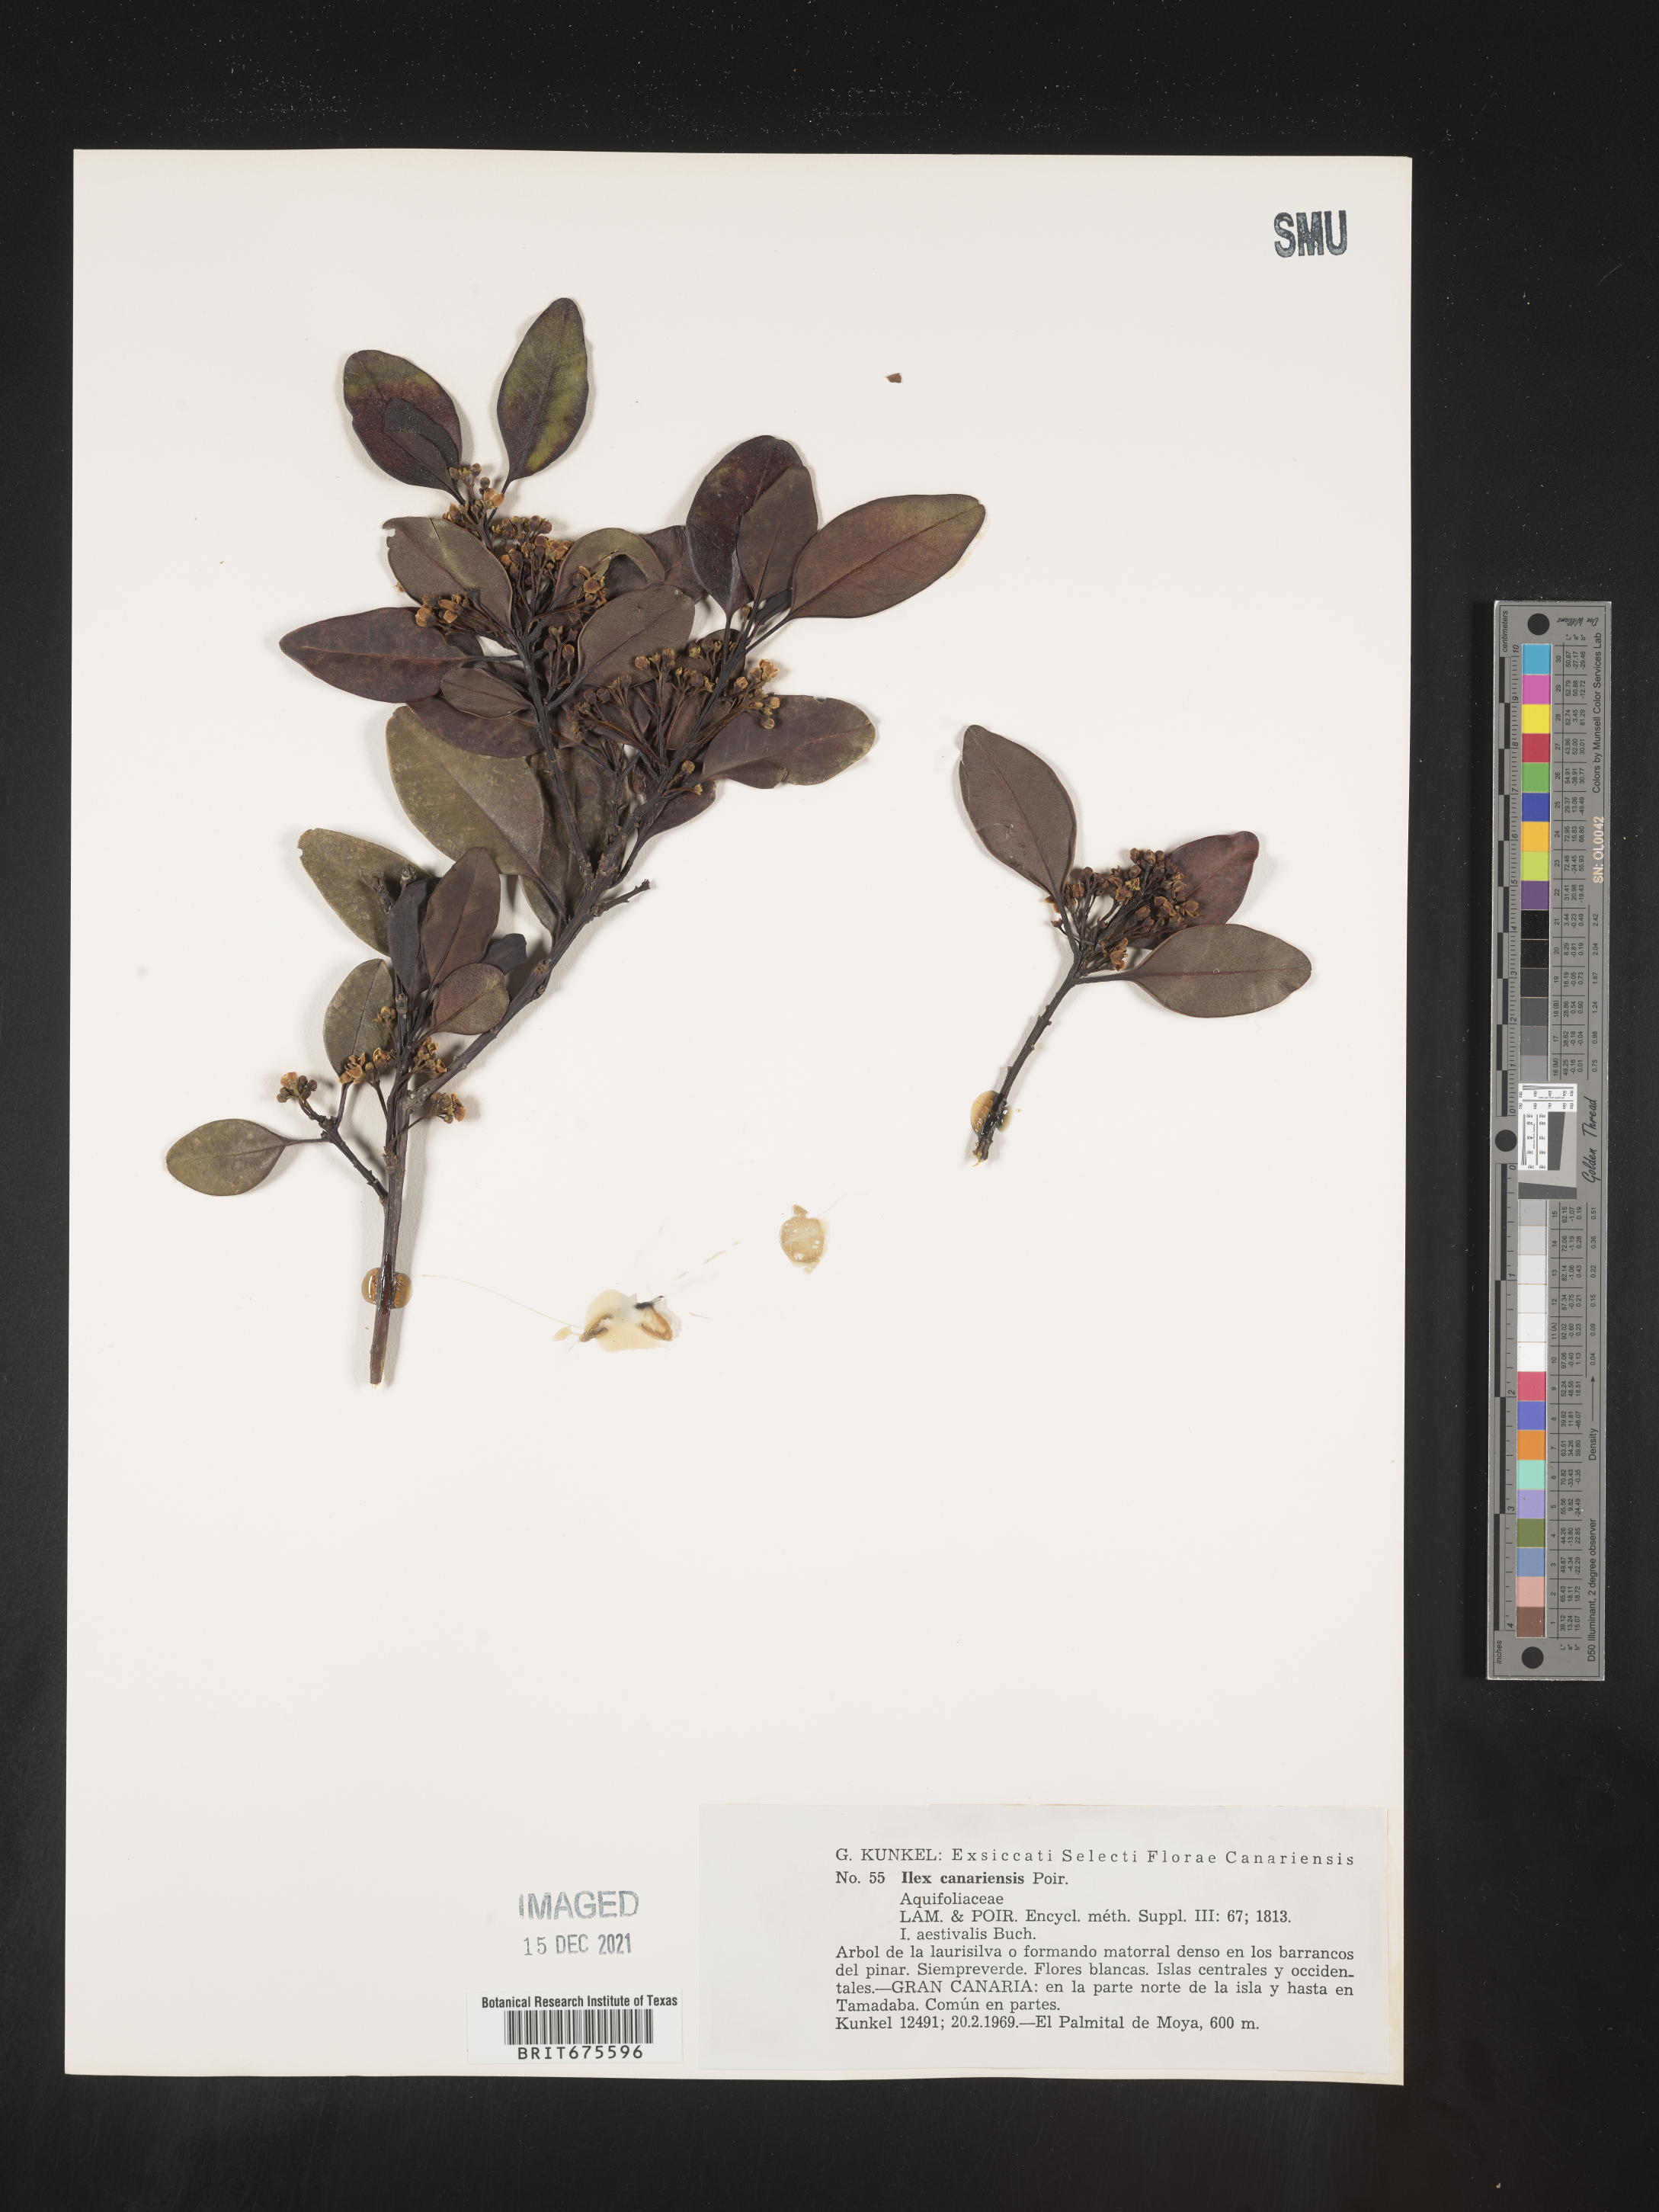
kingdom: Plantae
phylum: Tracheophyta
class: Magnoliopsida
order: Aquifoliales
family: Aquifoliaceae
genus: Ilex
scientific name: Ilex
